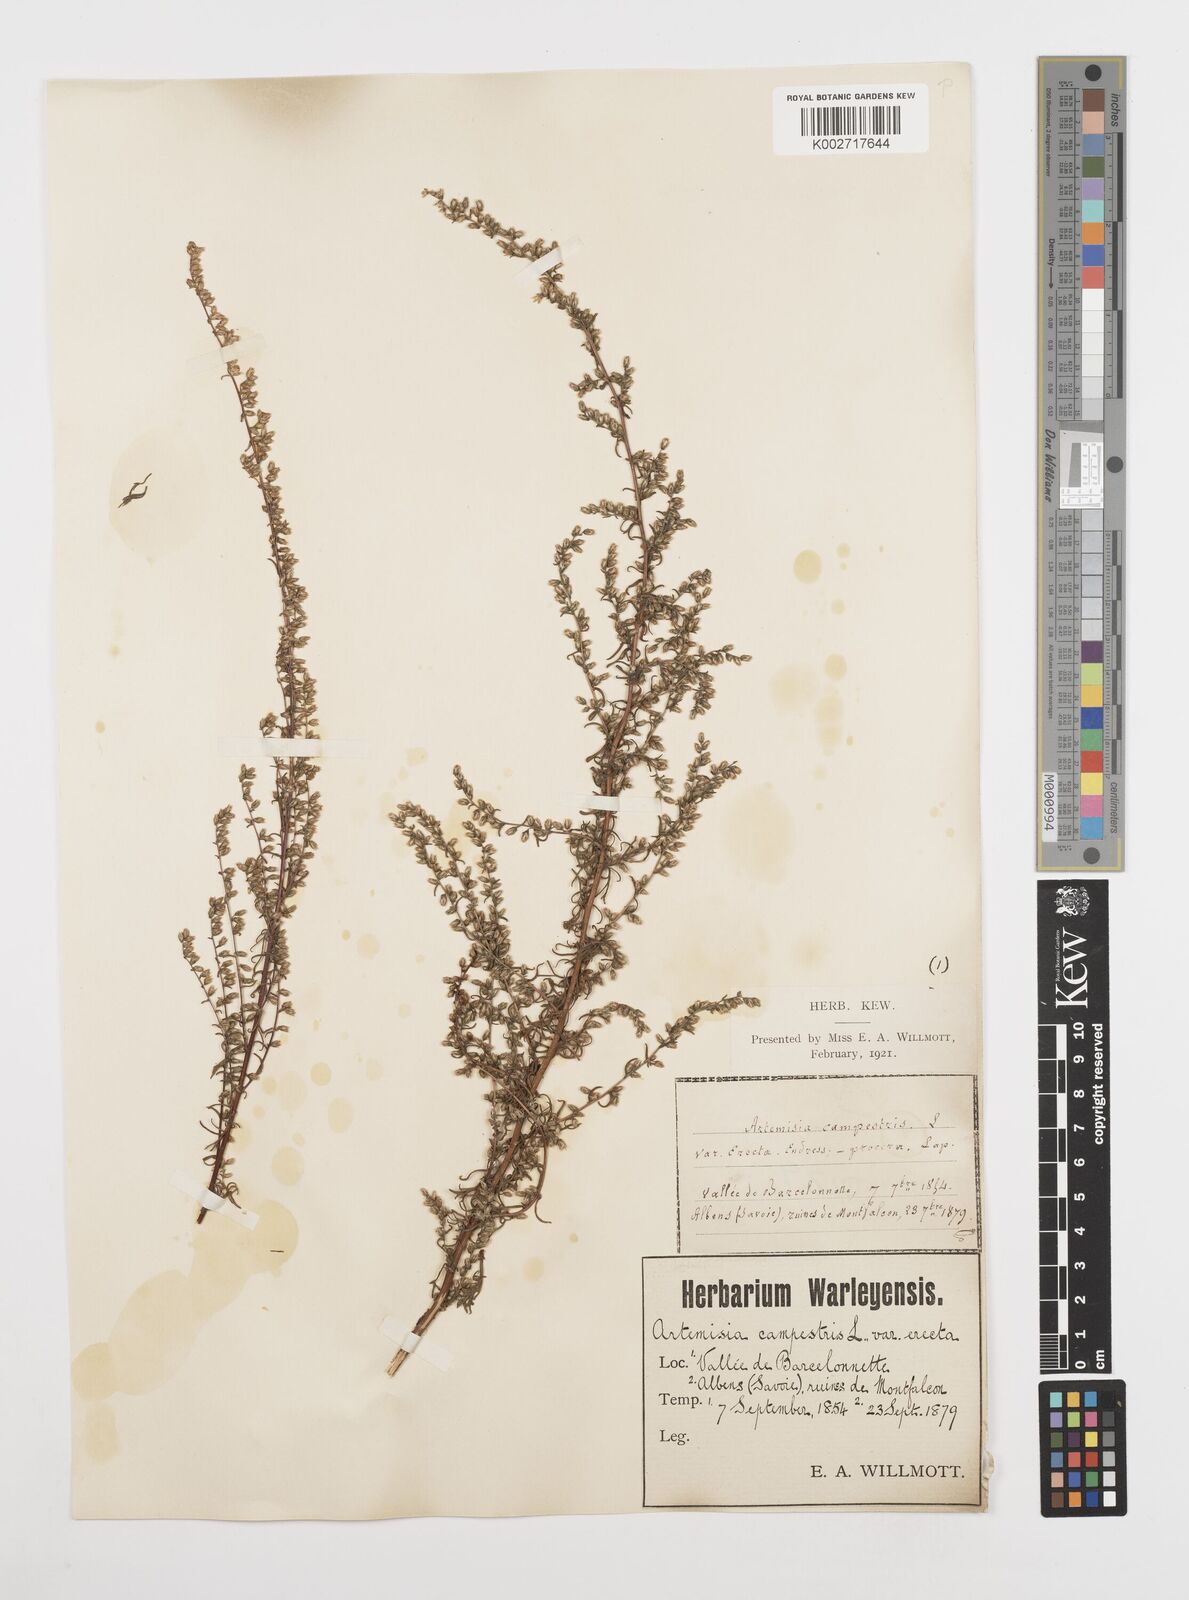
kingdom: Plantae
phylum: Tracheophyta
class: Magnoliopsida
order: Asterales
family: Asteraceae
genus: Artemisia
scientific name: Artemisia campestris
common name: Field wormwood
